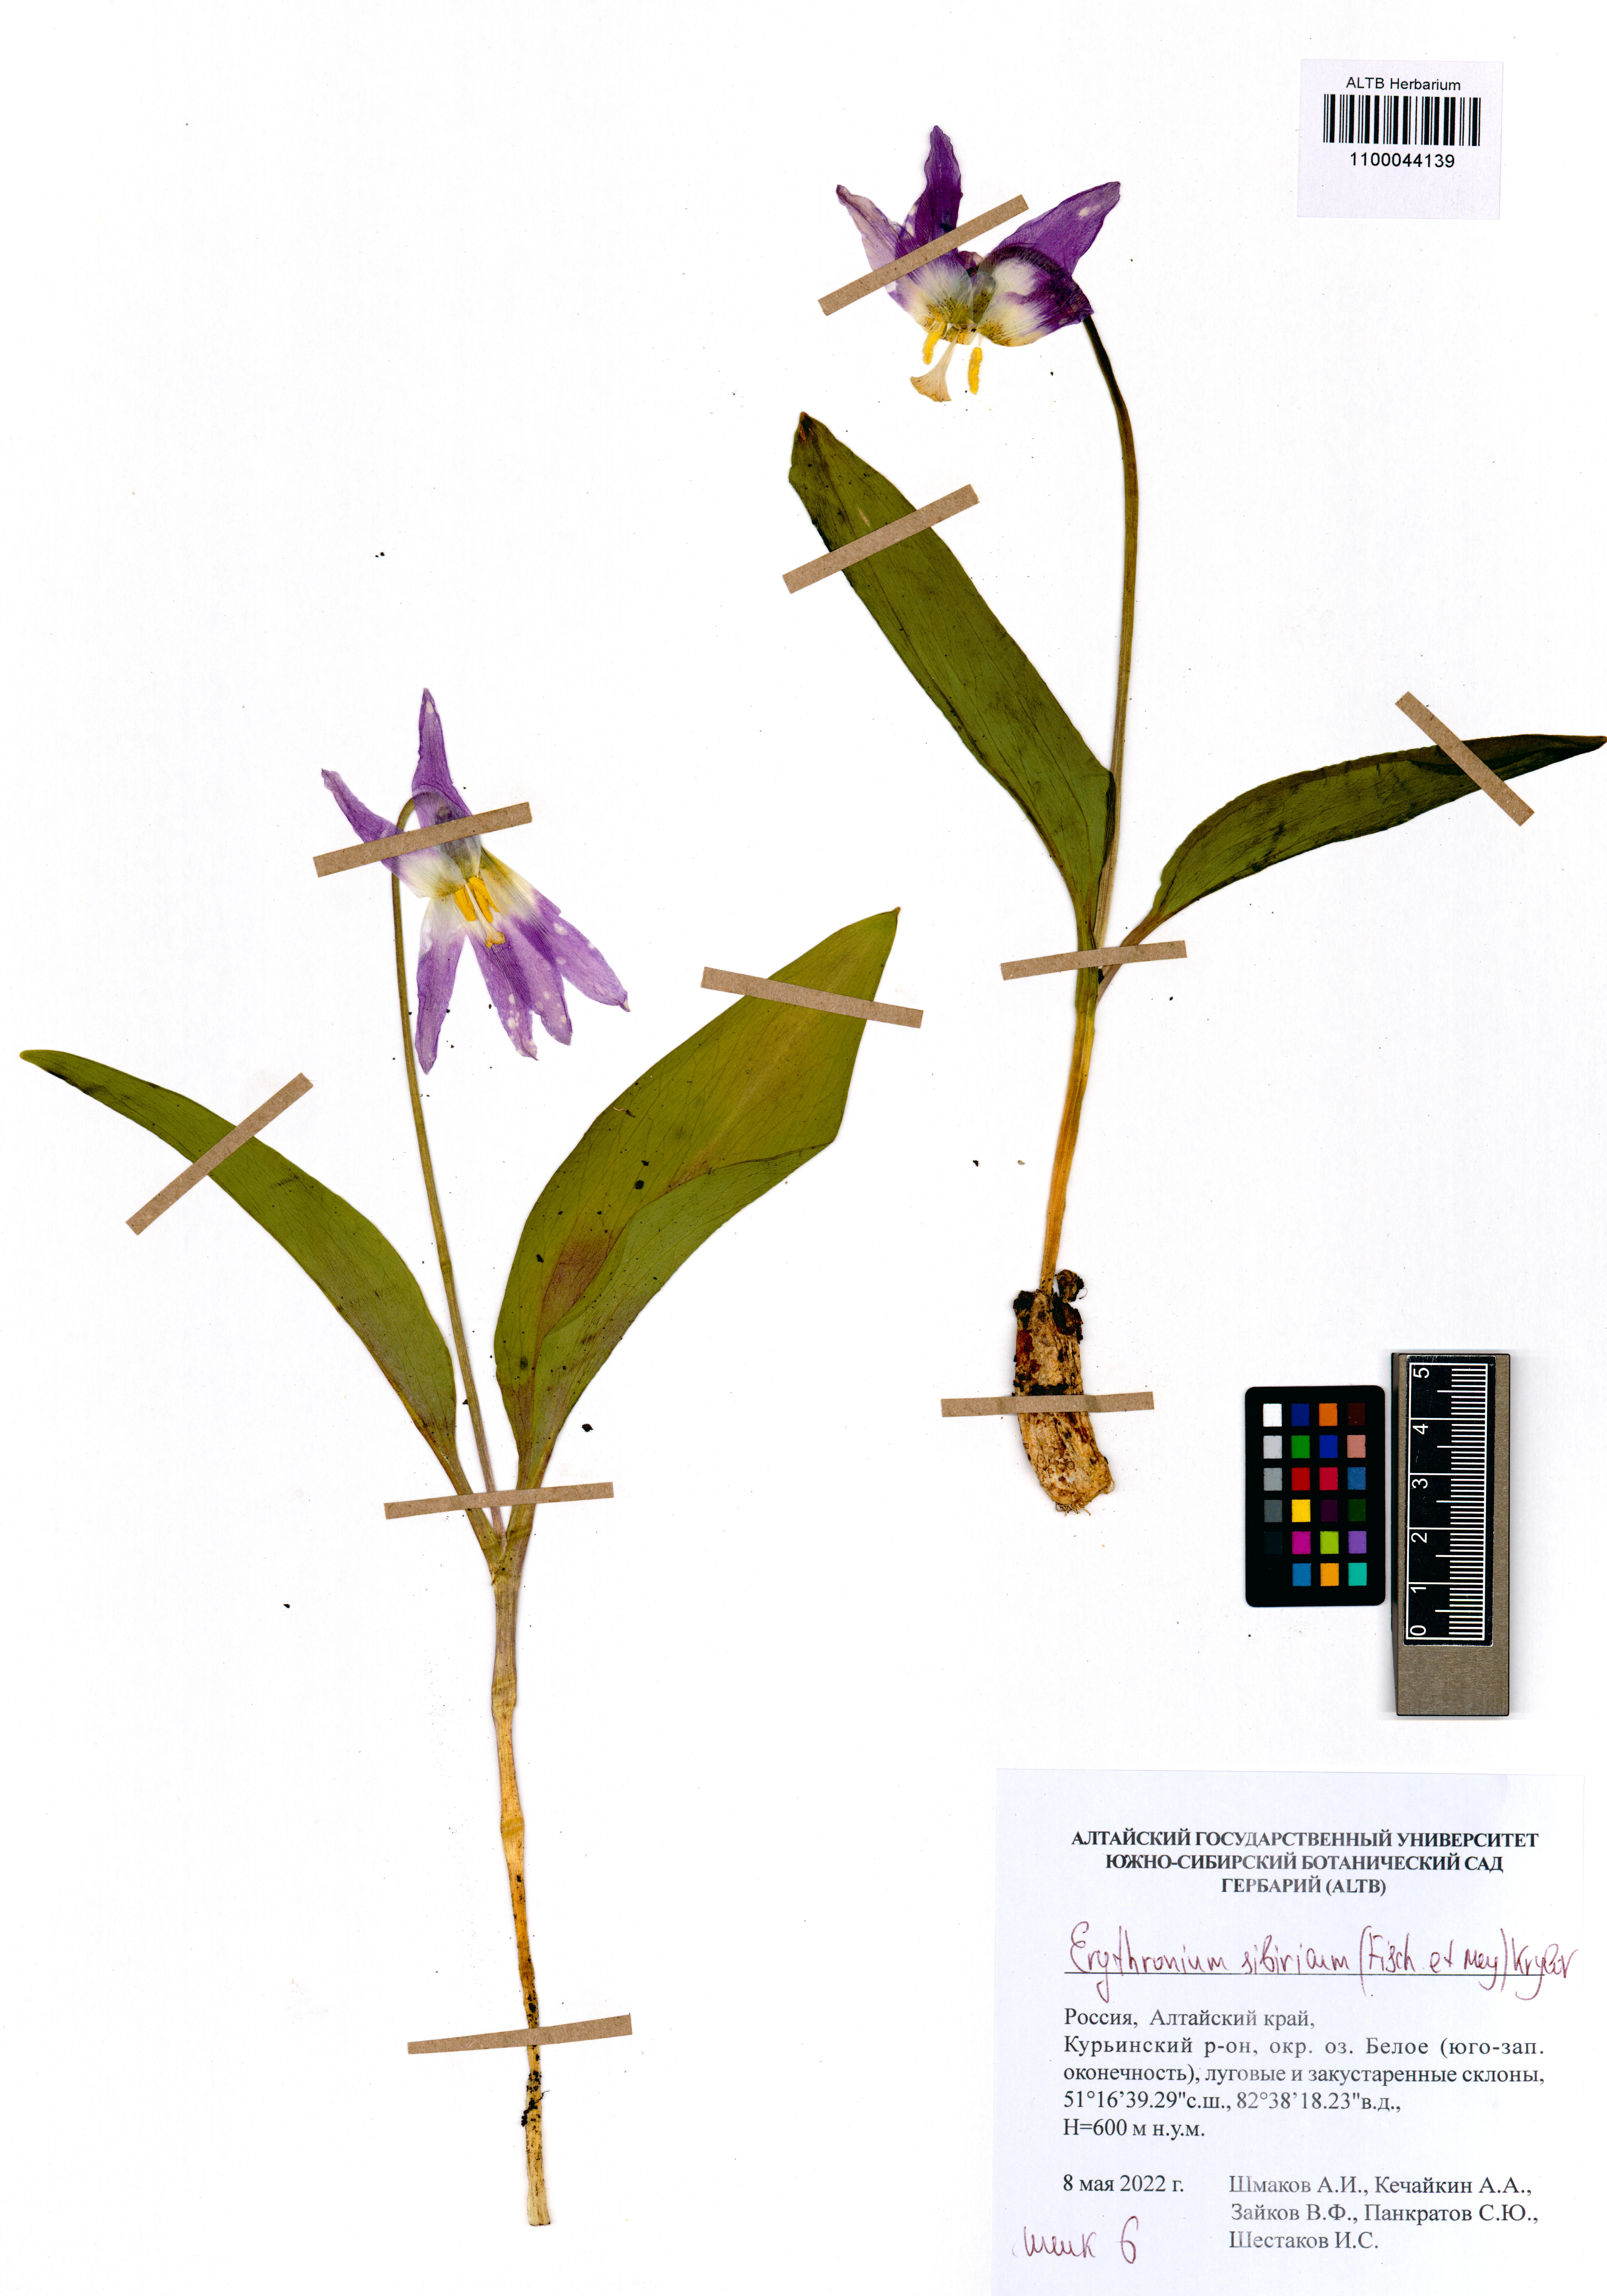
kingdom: Plantae
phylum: Tracheophyta
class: Liliopsida
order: Liliales
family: Liliaceae
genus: Erythronium
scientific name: Erythronium sibiricum
